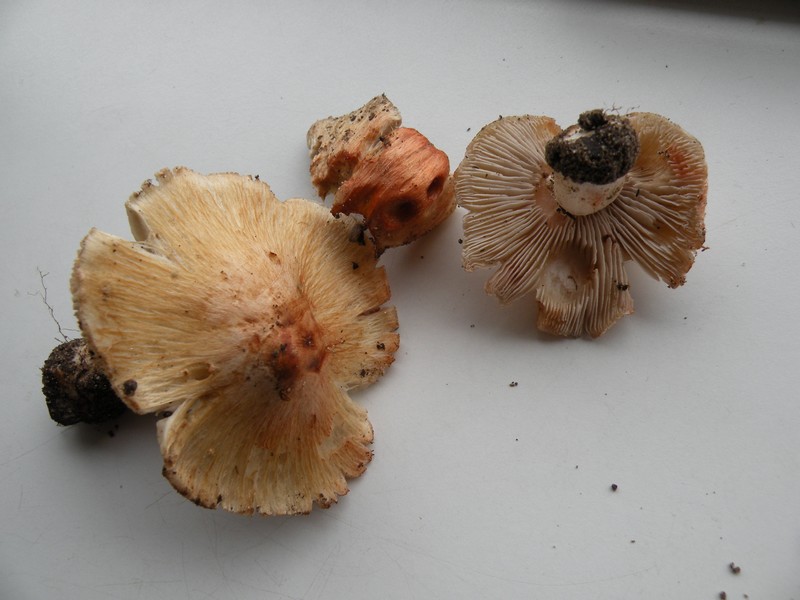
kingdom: Fungi
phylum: Basidiomycota
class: Agaricomycetes
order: Agaricales
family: Inocybaceae
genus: Inosperma
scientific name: Inosperma erubescens
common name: giftig trævlhat
